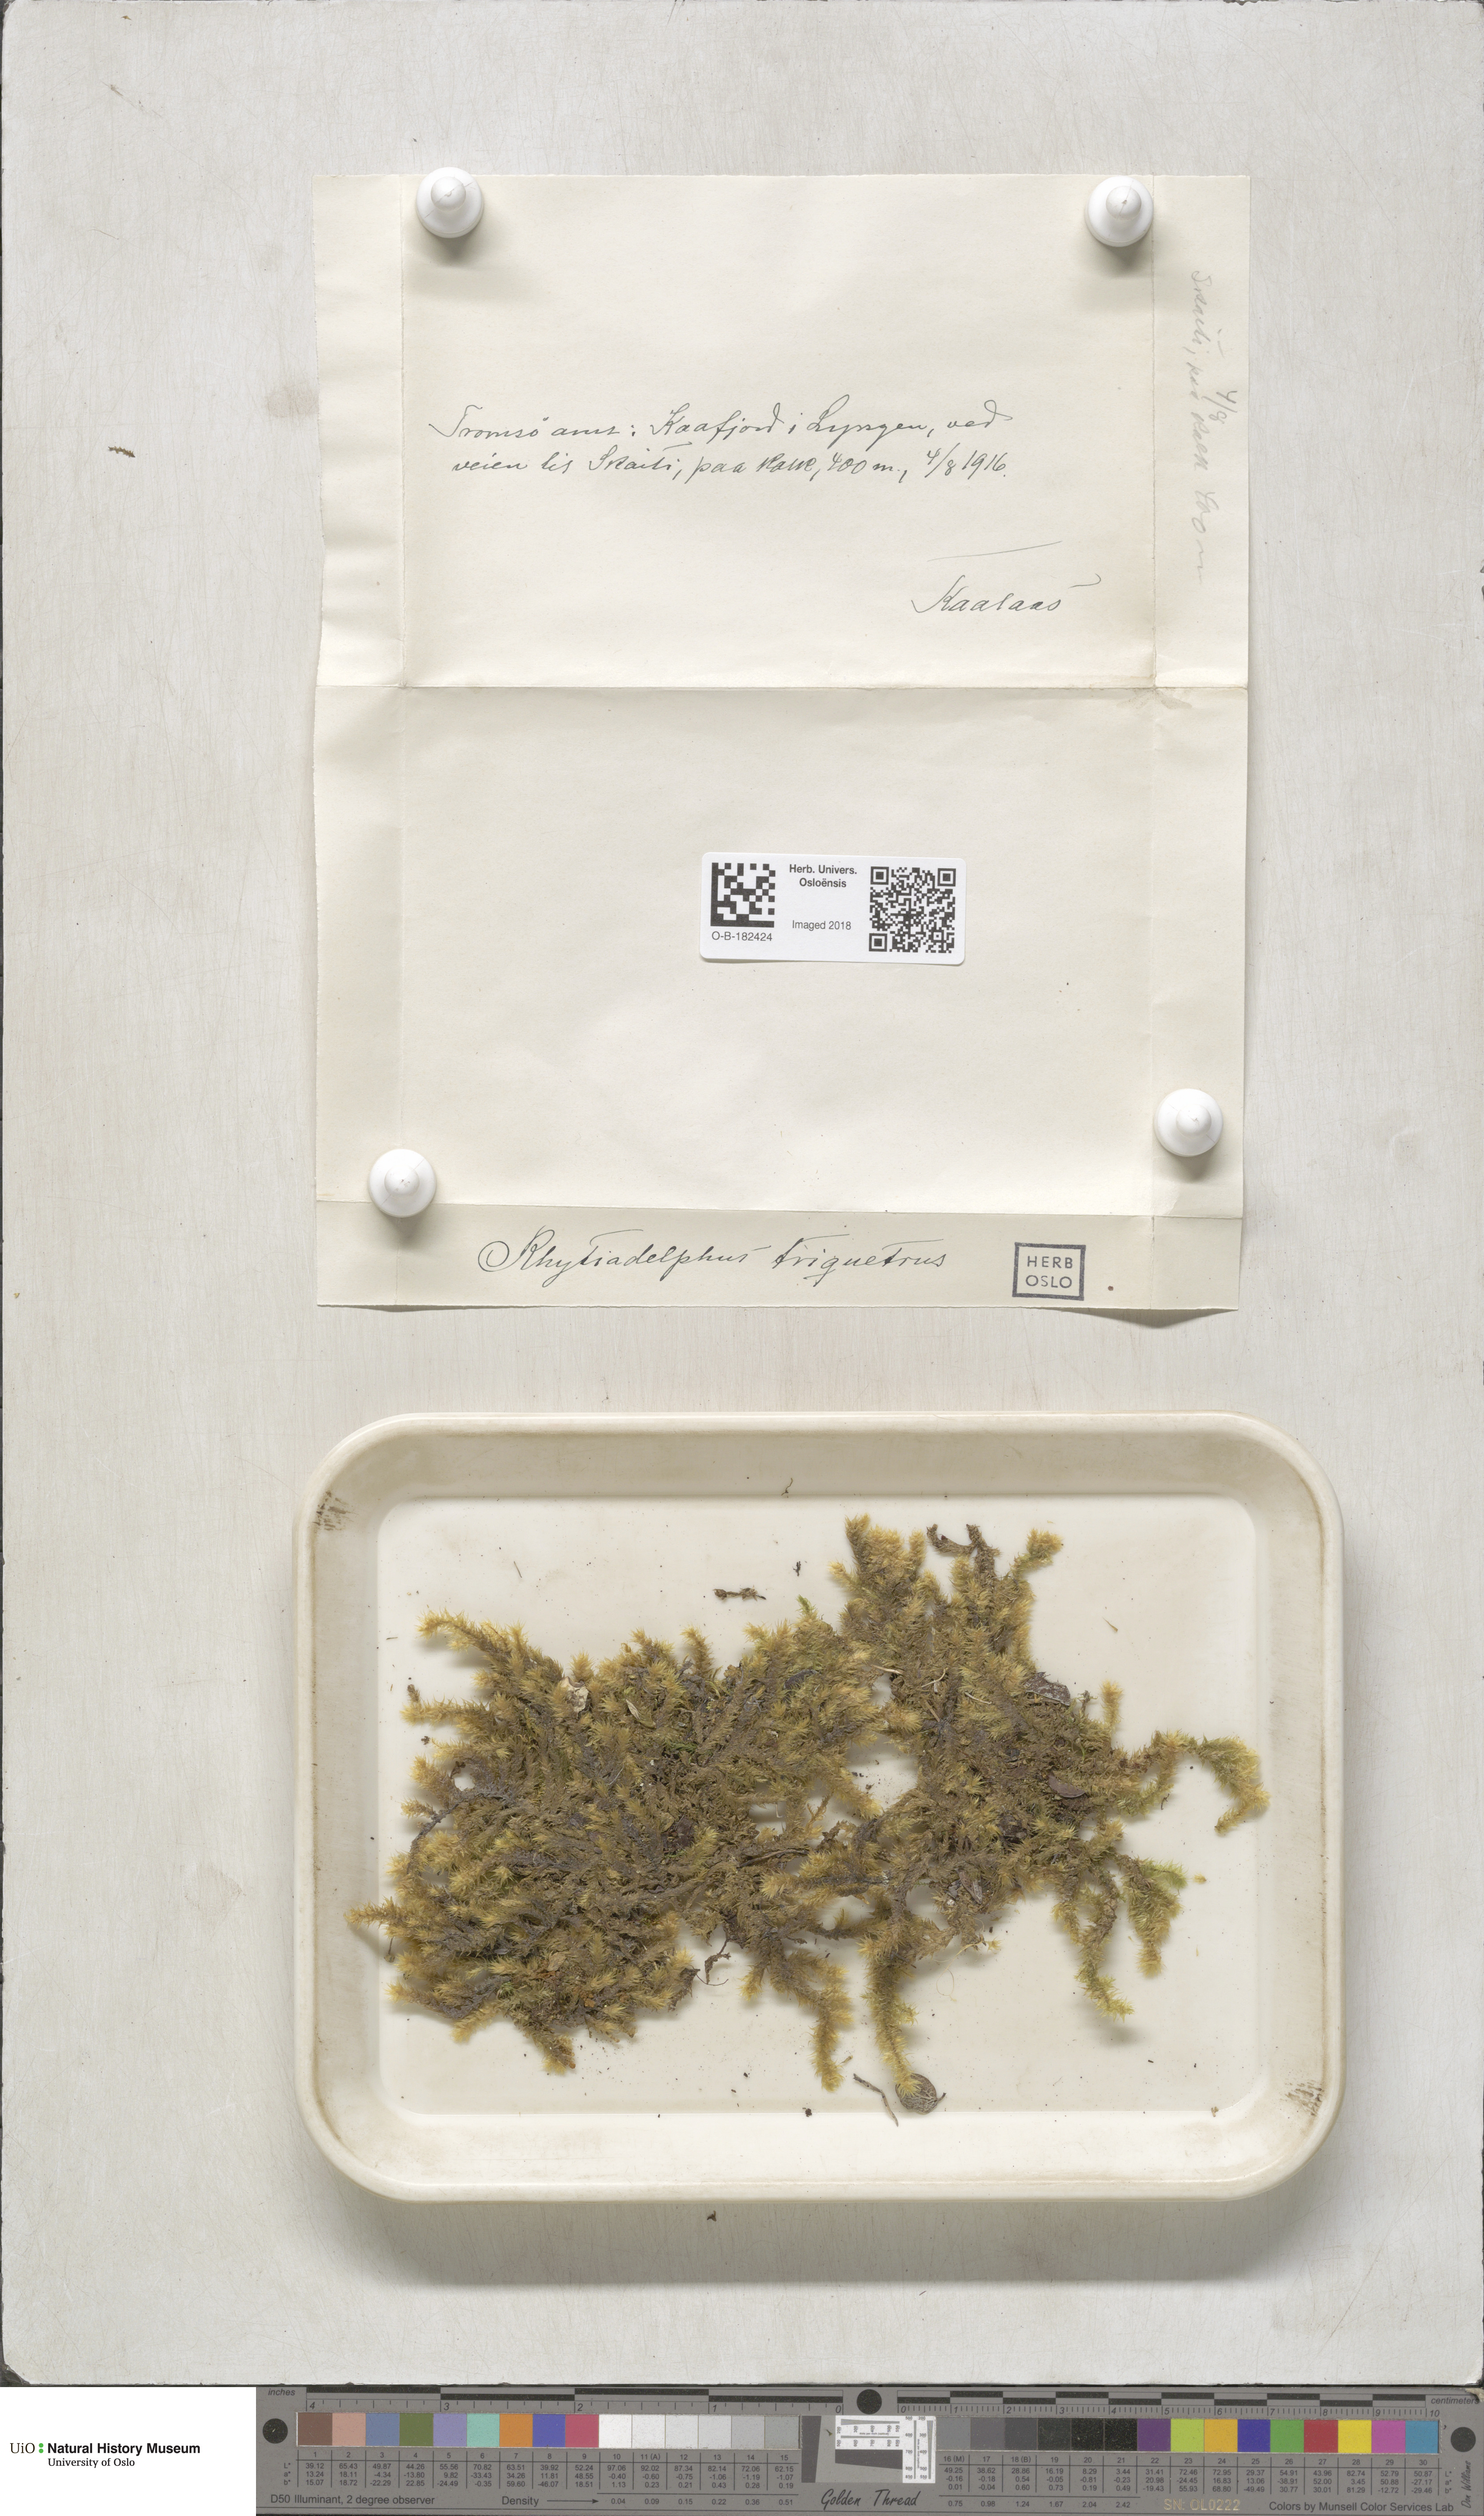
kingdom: Plantae
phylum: Bryophyta
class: Bryopsida
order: Hypnales
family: Hylocomiaceae
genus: Hylocomiadelphus
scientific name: Hylocomiadelphus triquetrus
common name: Rough goose neck moss
